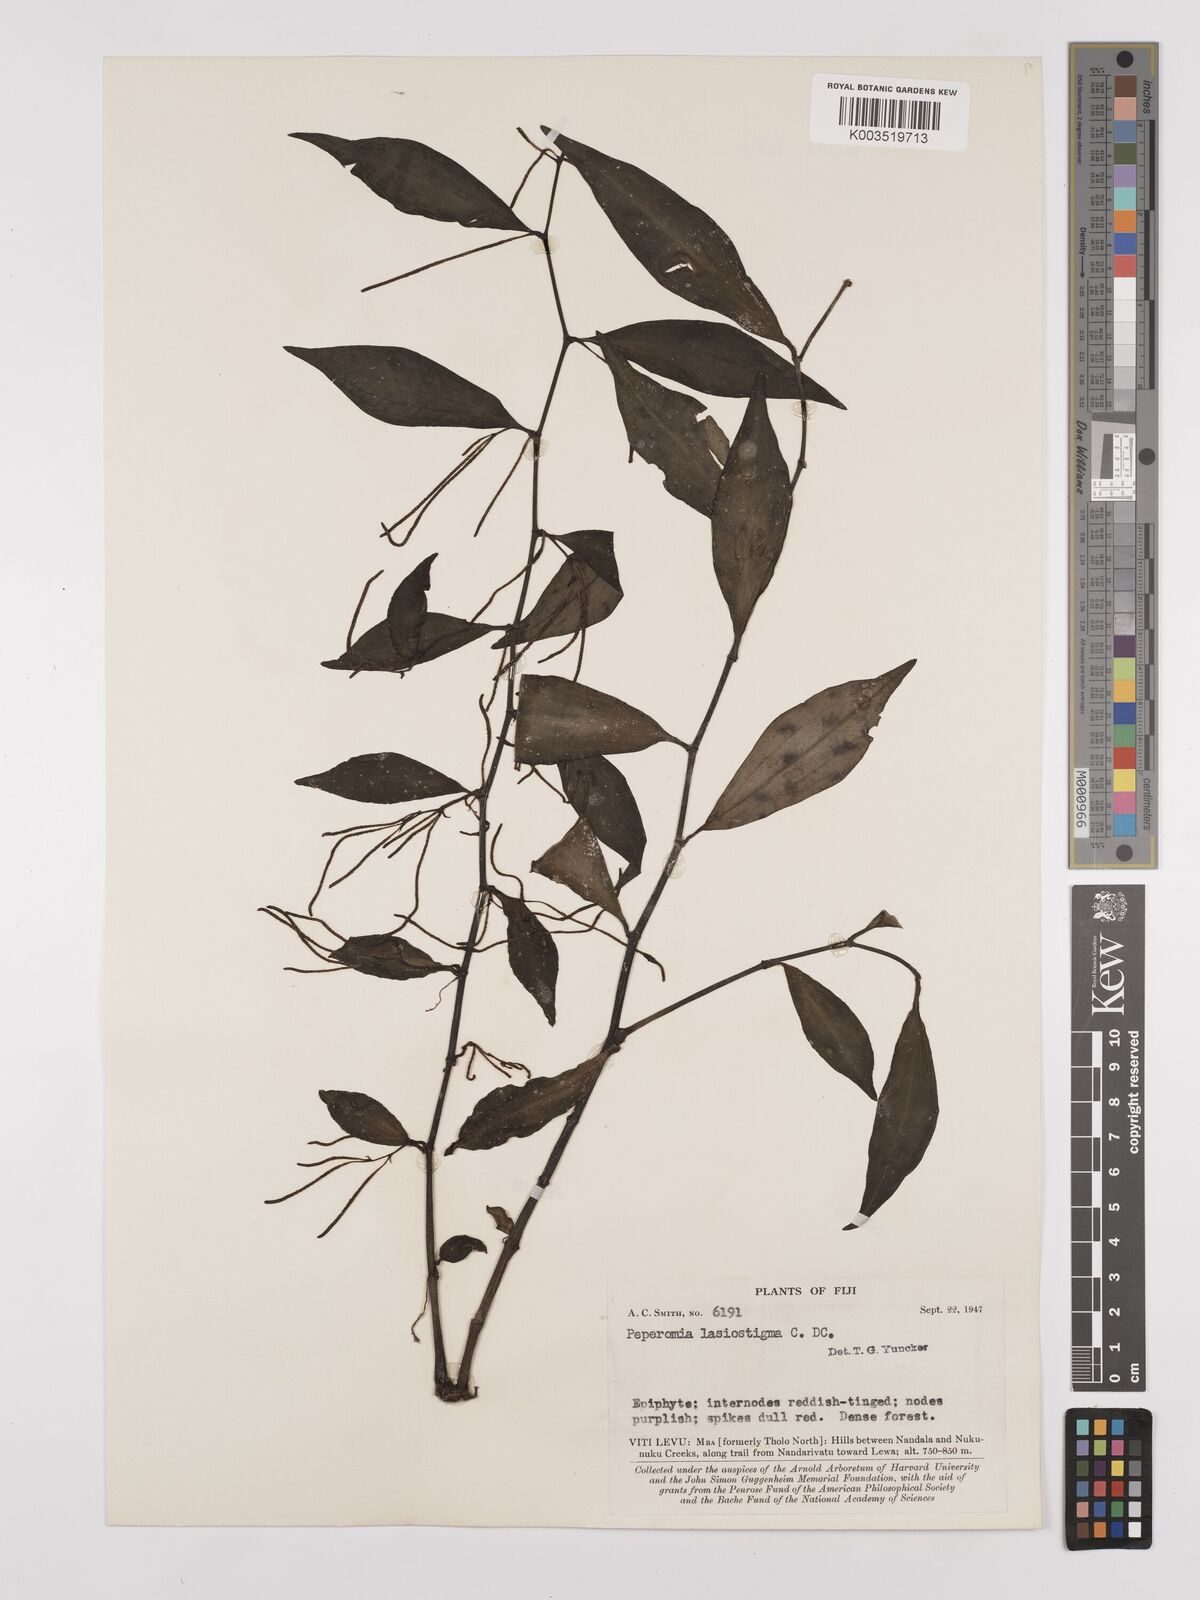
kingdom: Plantae
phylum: Tracheophyta
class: Magnoliopsida
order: Piperales
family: Piperaceae
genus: Peperomia
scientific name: Peperomia lasiostigma
